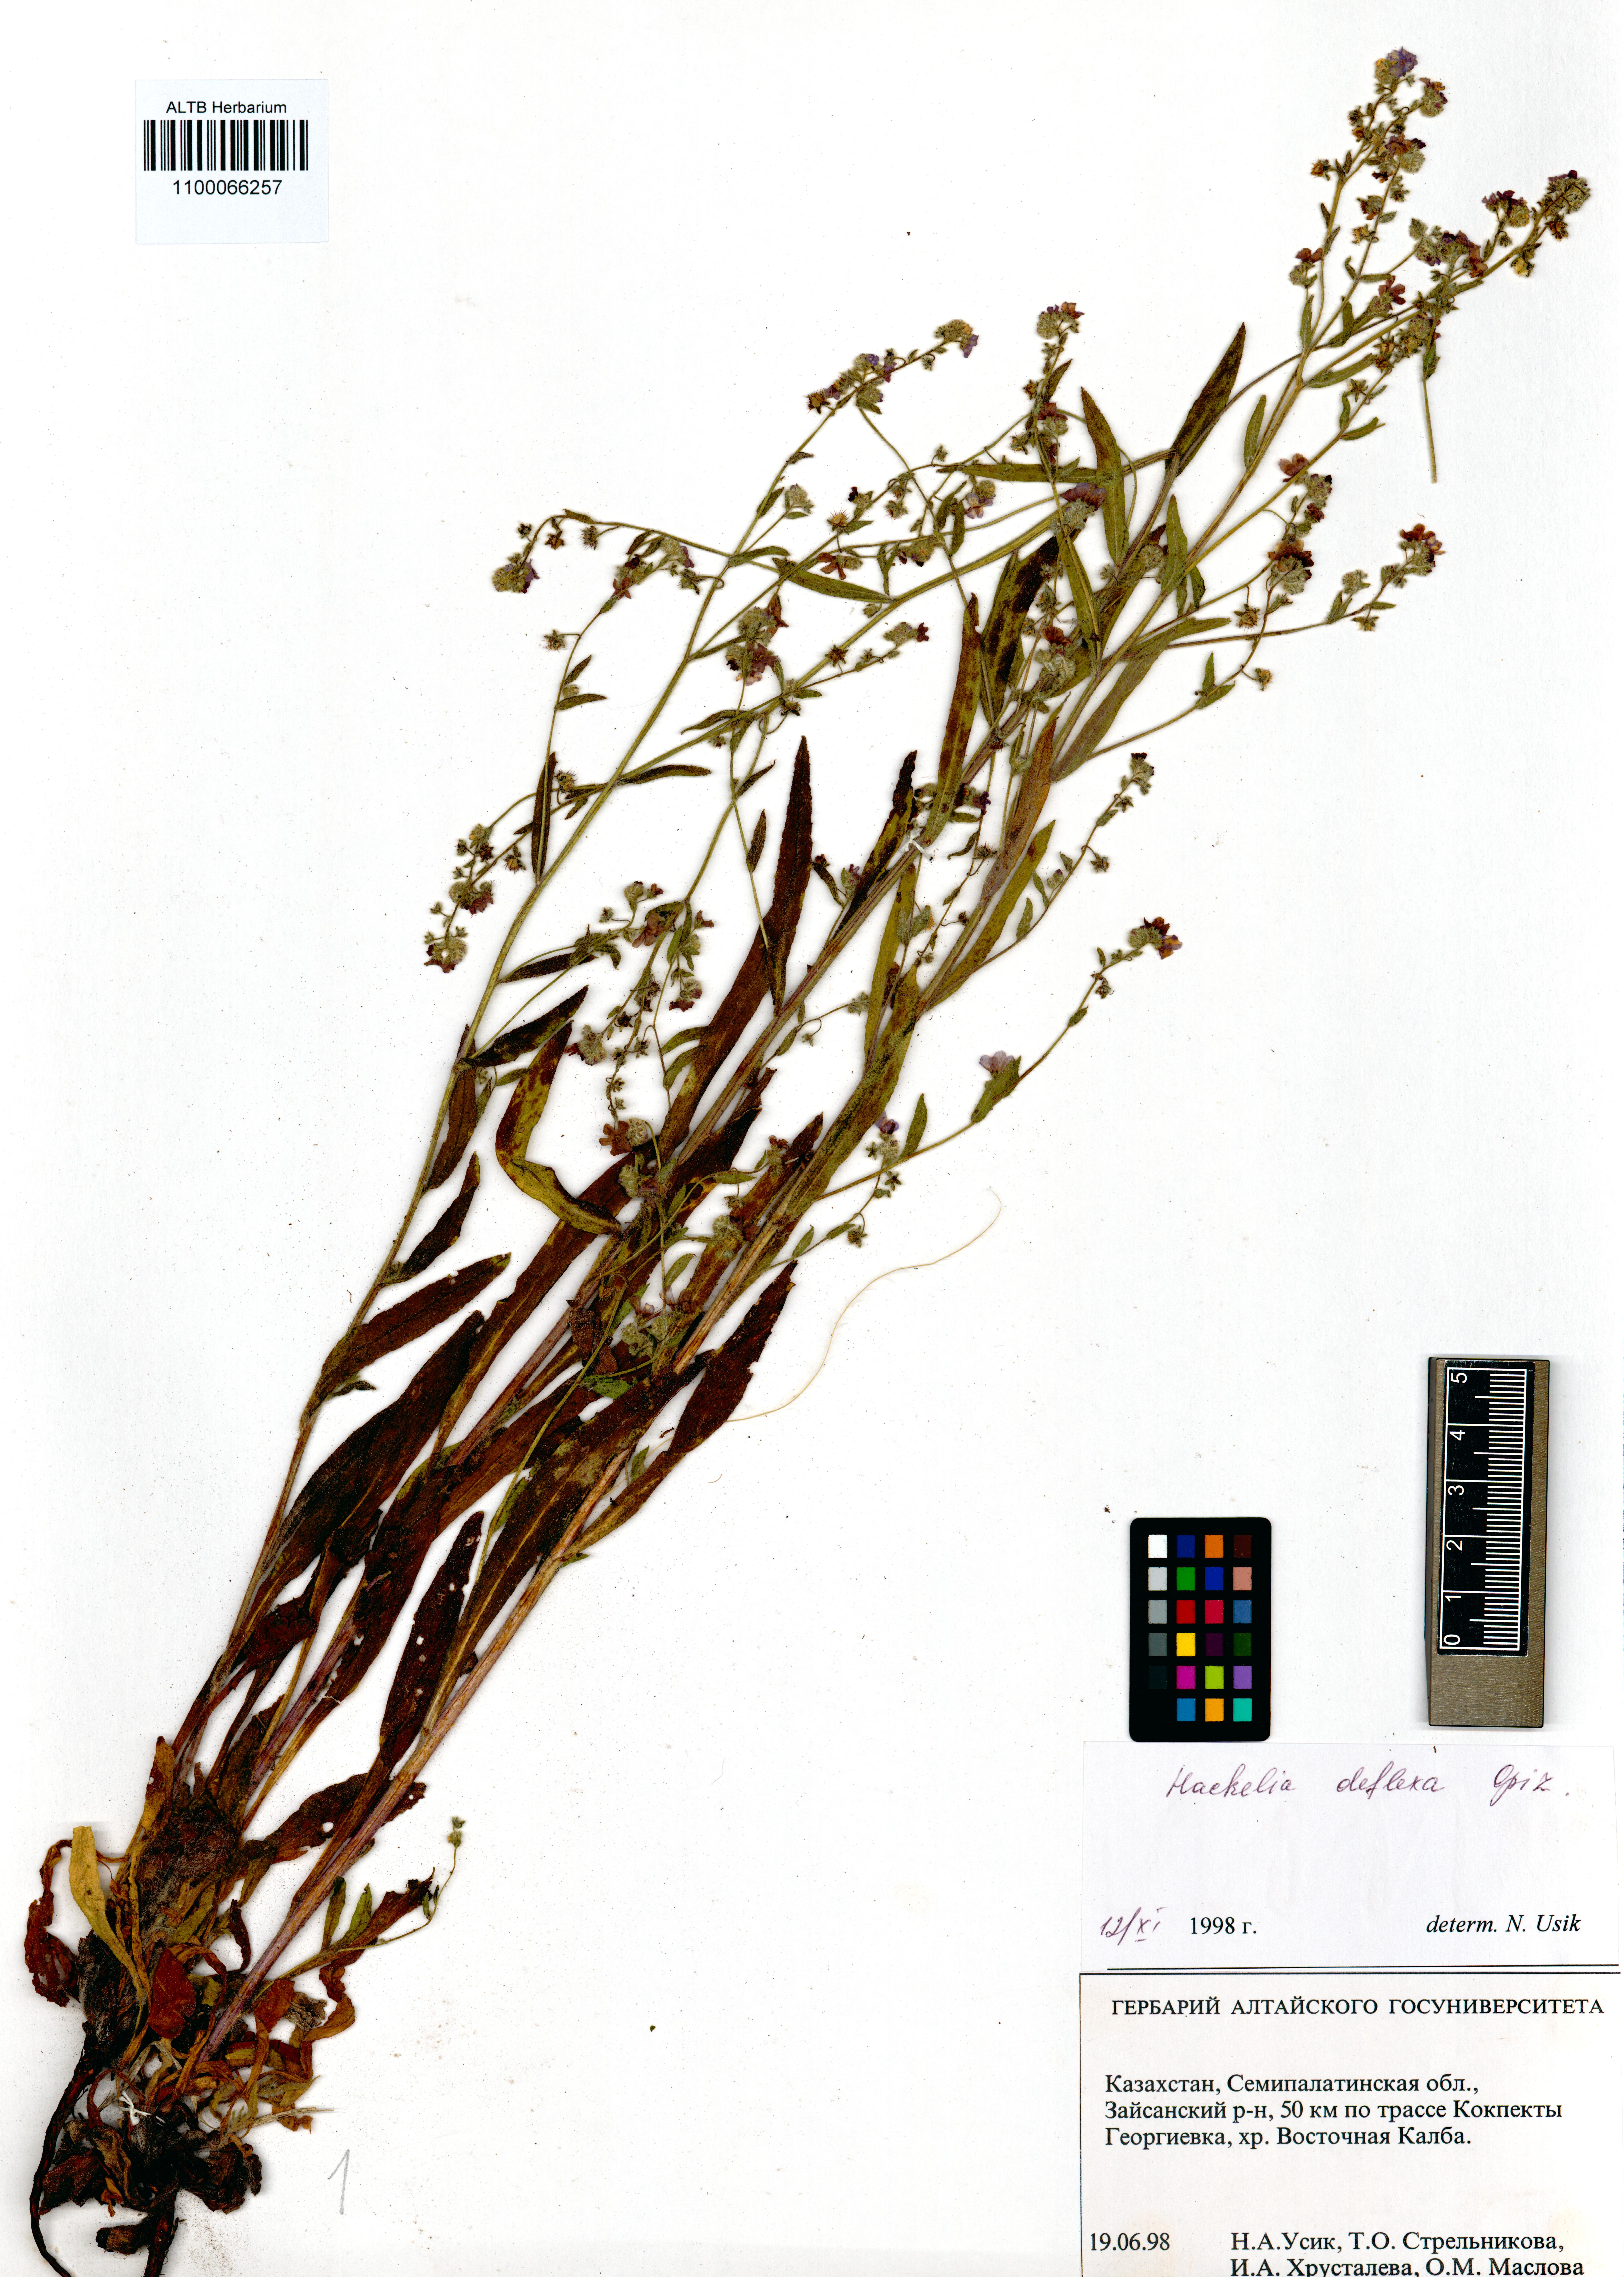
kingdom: Plantae
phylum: Tracheophyta
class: Magnoliopsida
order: Boraginales
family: Boraginaceae
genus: Hackelia
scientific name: Hackelia deflexa
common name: Nodding stickseed
